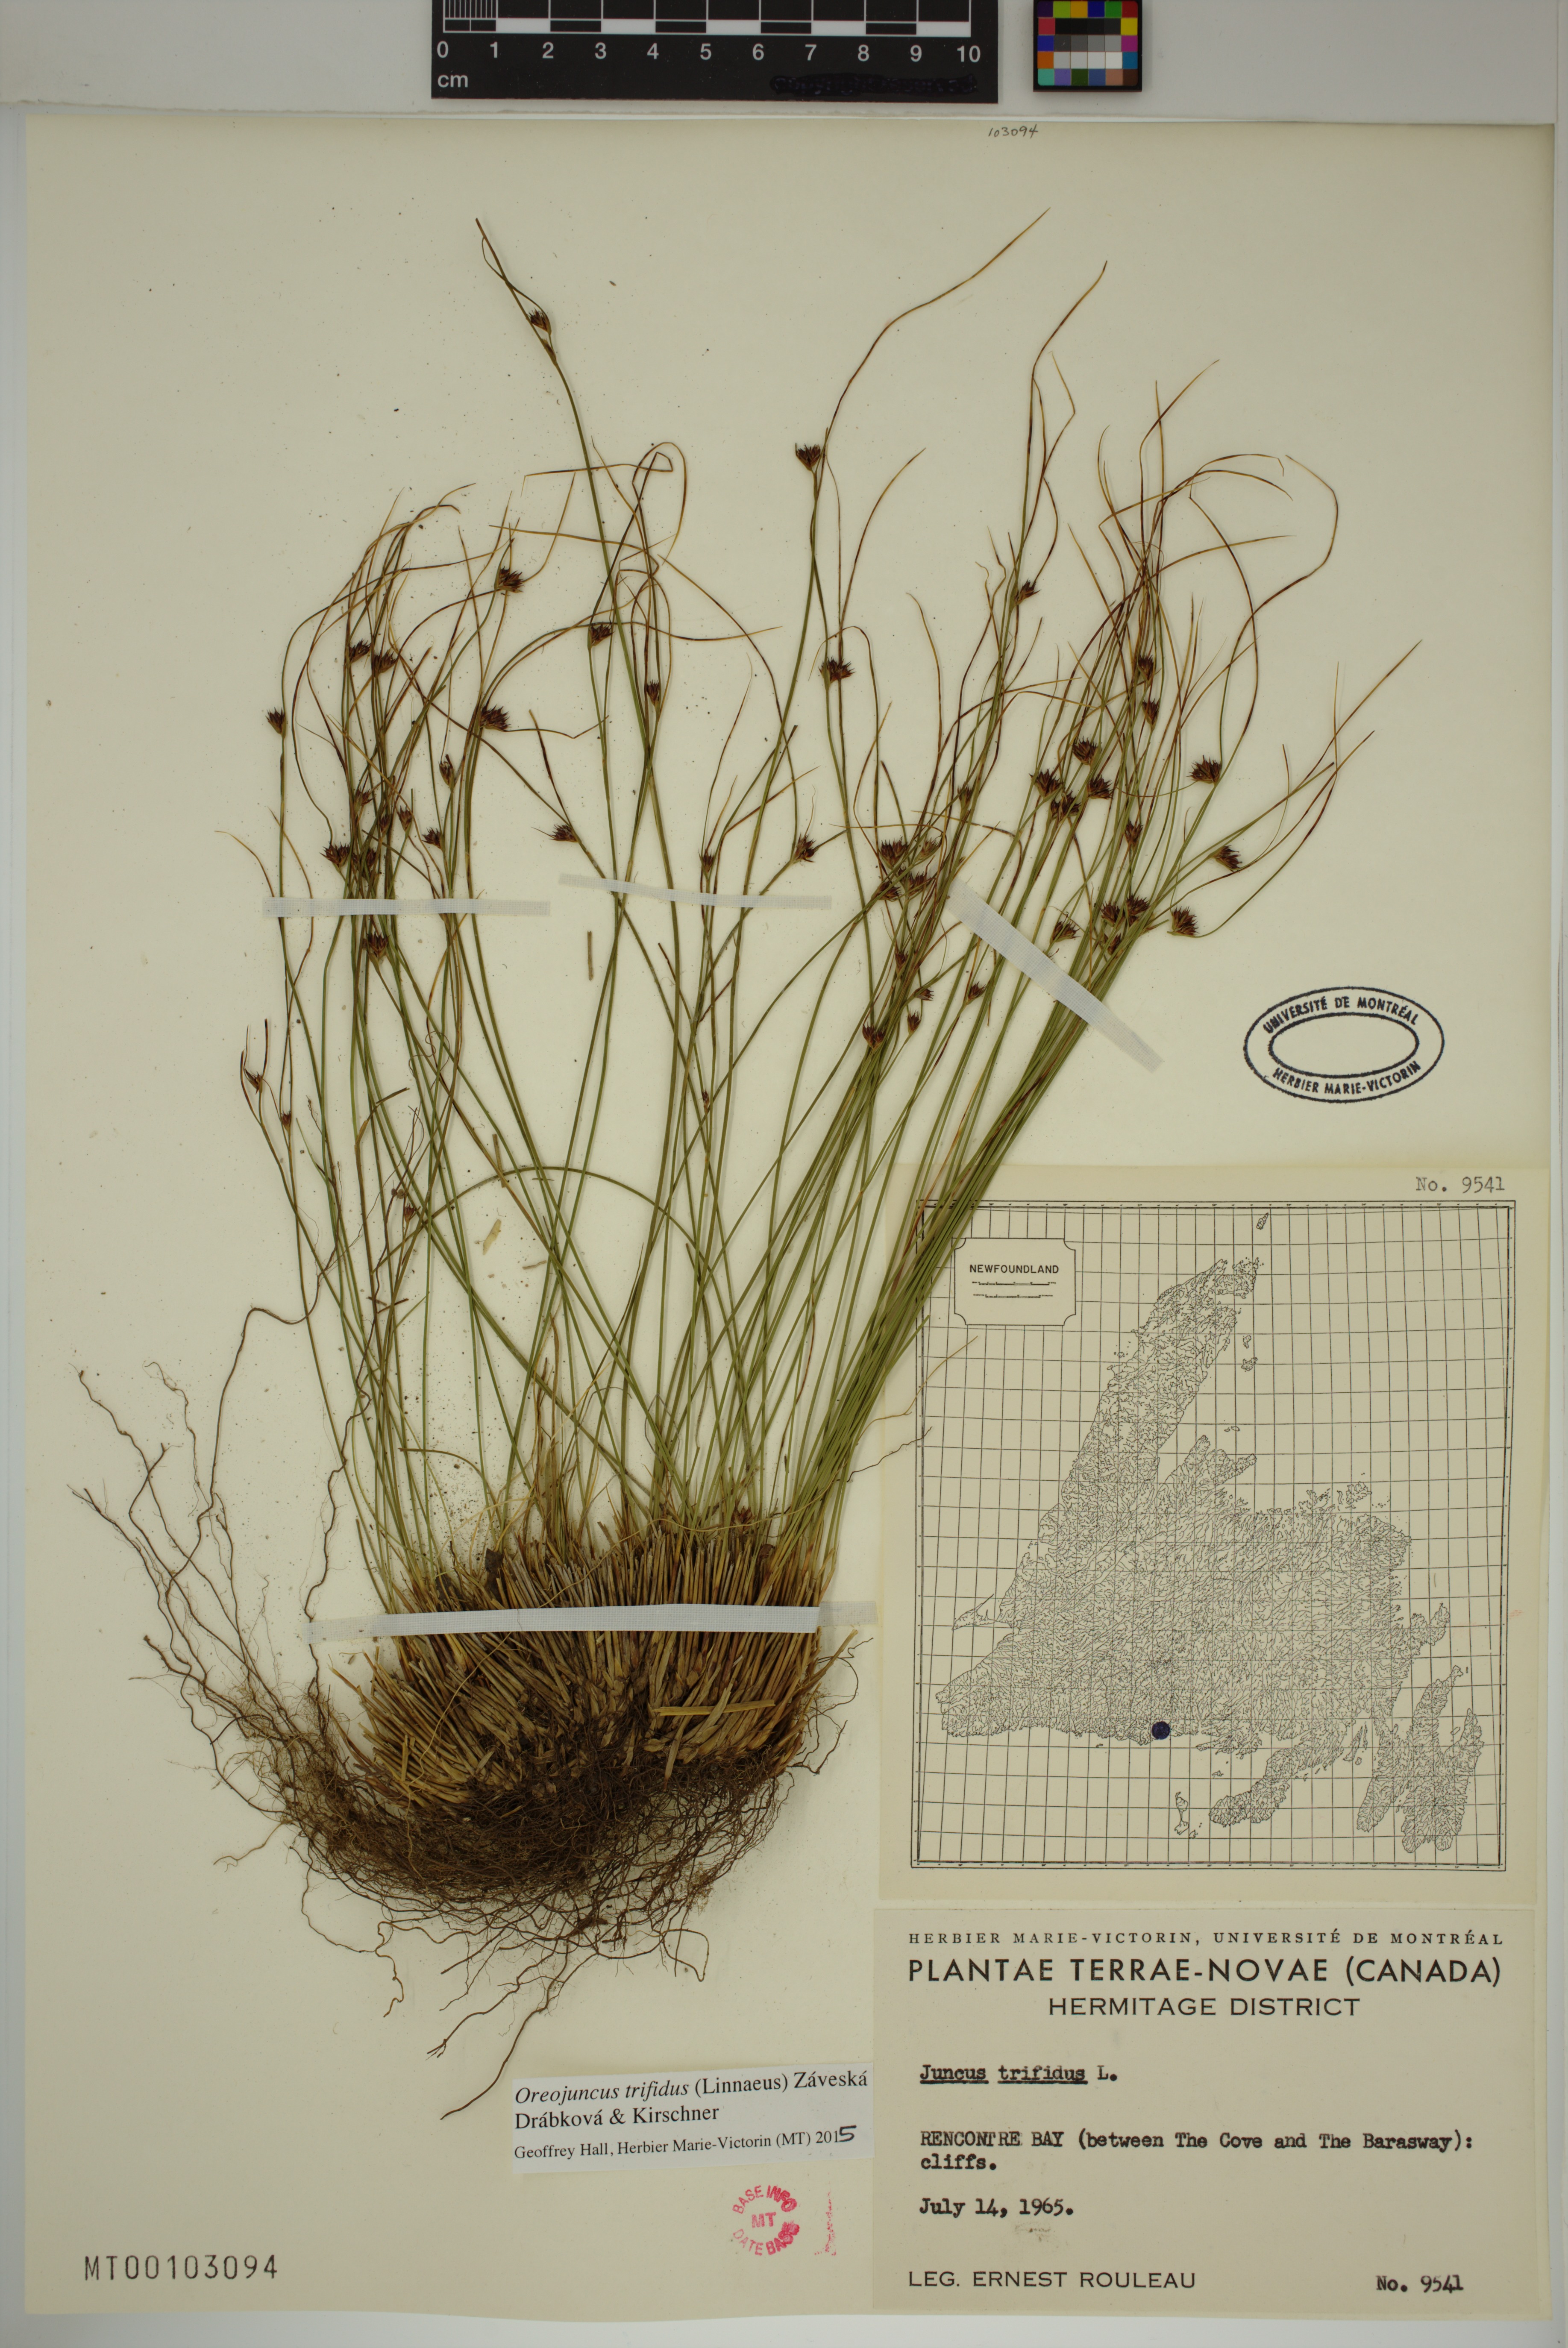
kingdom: Plantae
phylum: Tracheophyta
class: Liliopsida
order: Poales
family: Juncaceae
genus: Oreojuncus
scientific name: Oreojuncus trifidus
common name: Highland rush
